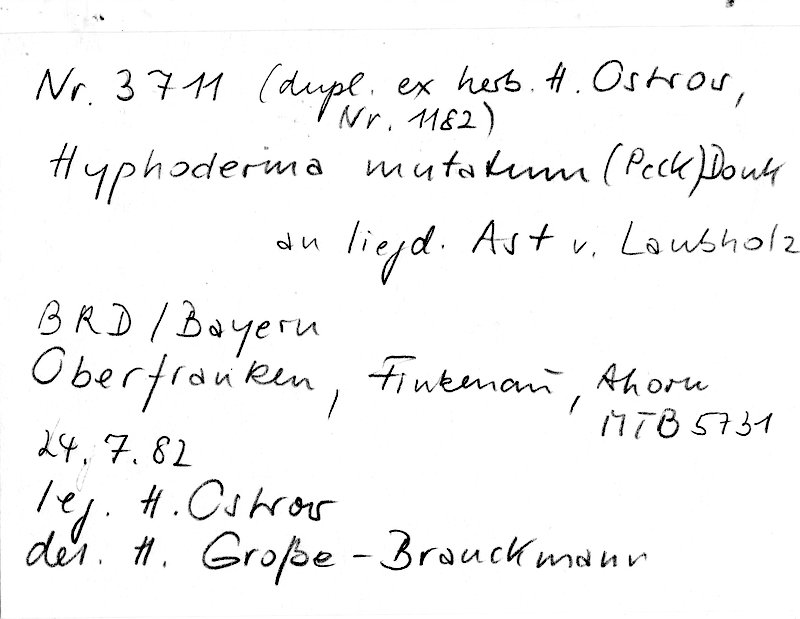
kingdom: Fungi
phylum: Basidiomycota
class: Agaricomycetes
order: Polyporales
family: Hyphodermataceae
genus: Mutatoderma
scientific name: Mutatoderma mutatum
